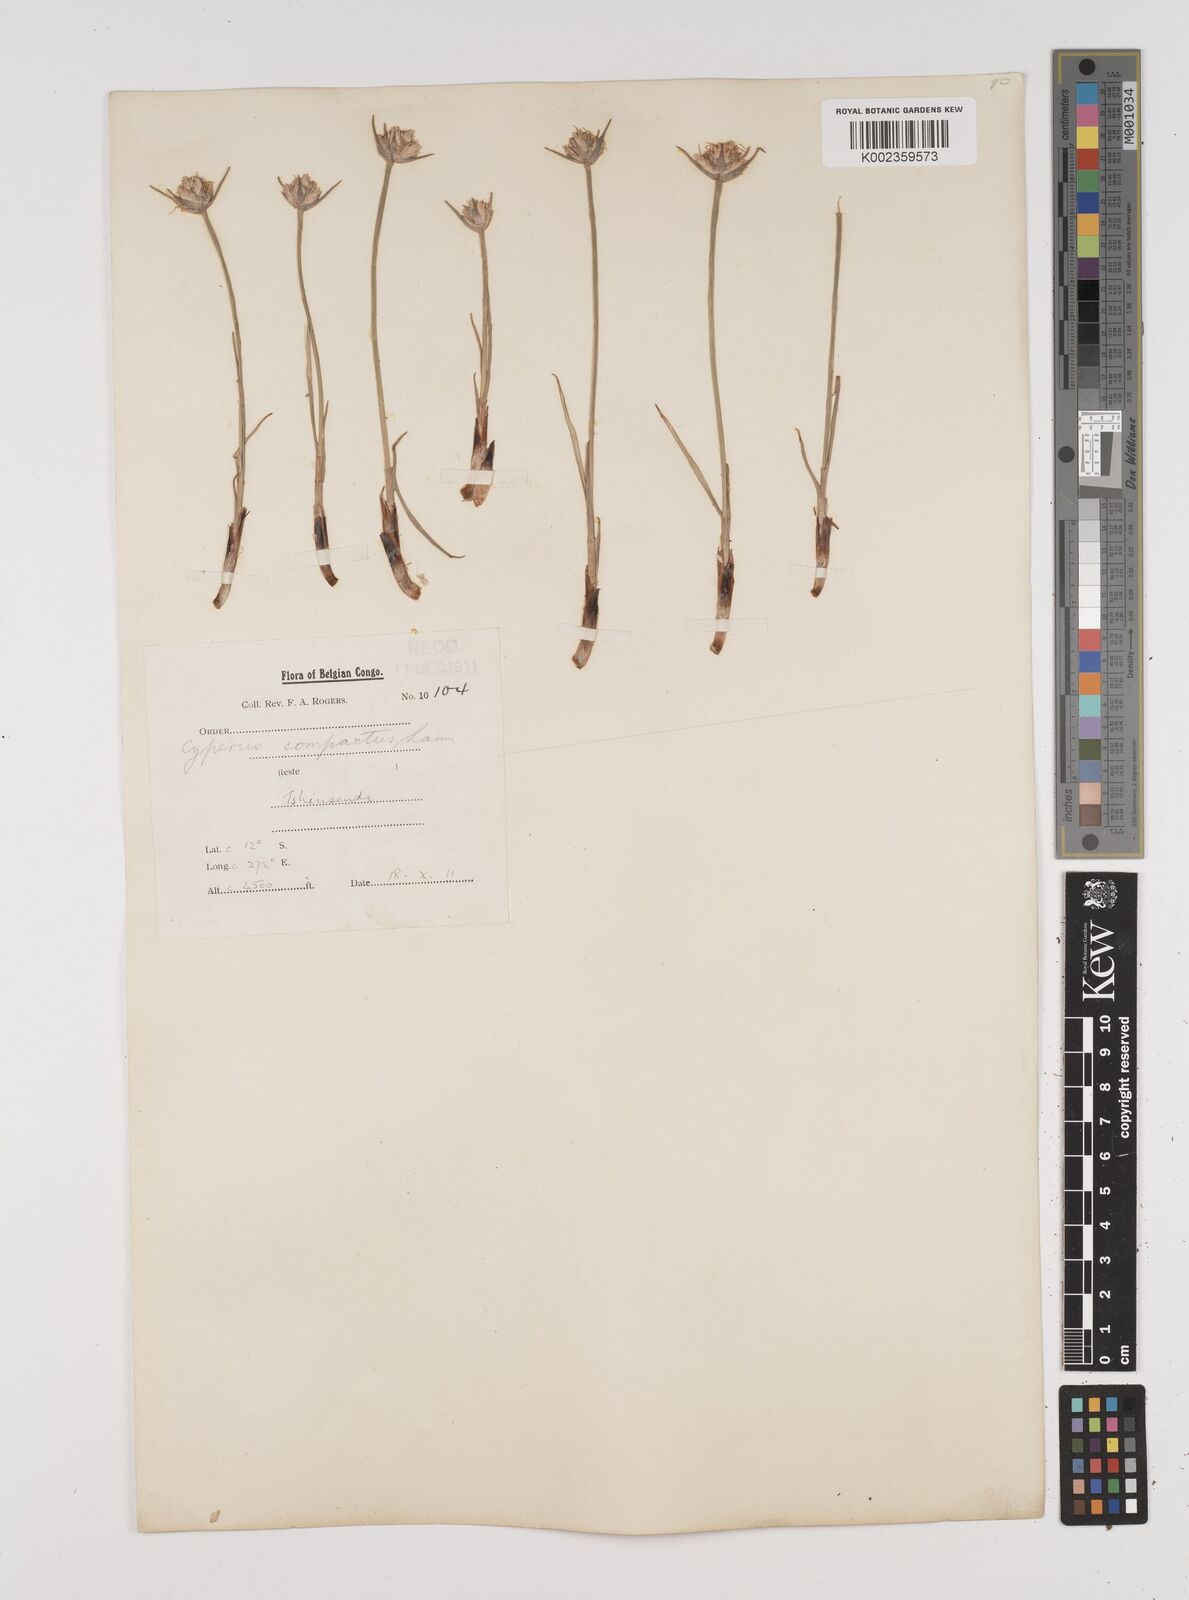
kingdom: Plantae
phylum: Tracheophyta
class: Liliopsida
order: Poales
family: Cyperaceae
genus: Cyperus
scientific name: Cyperus nduru
